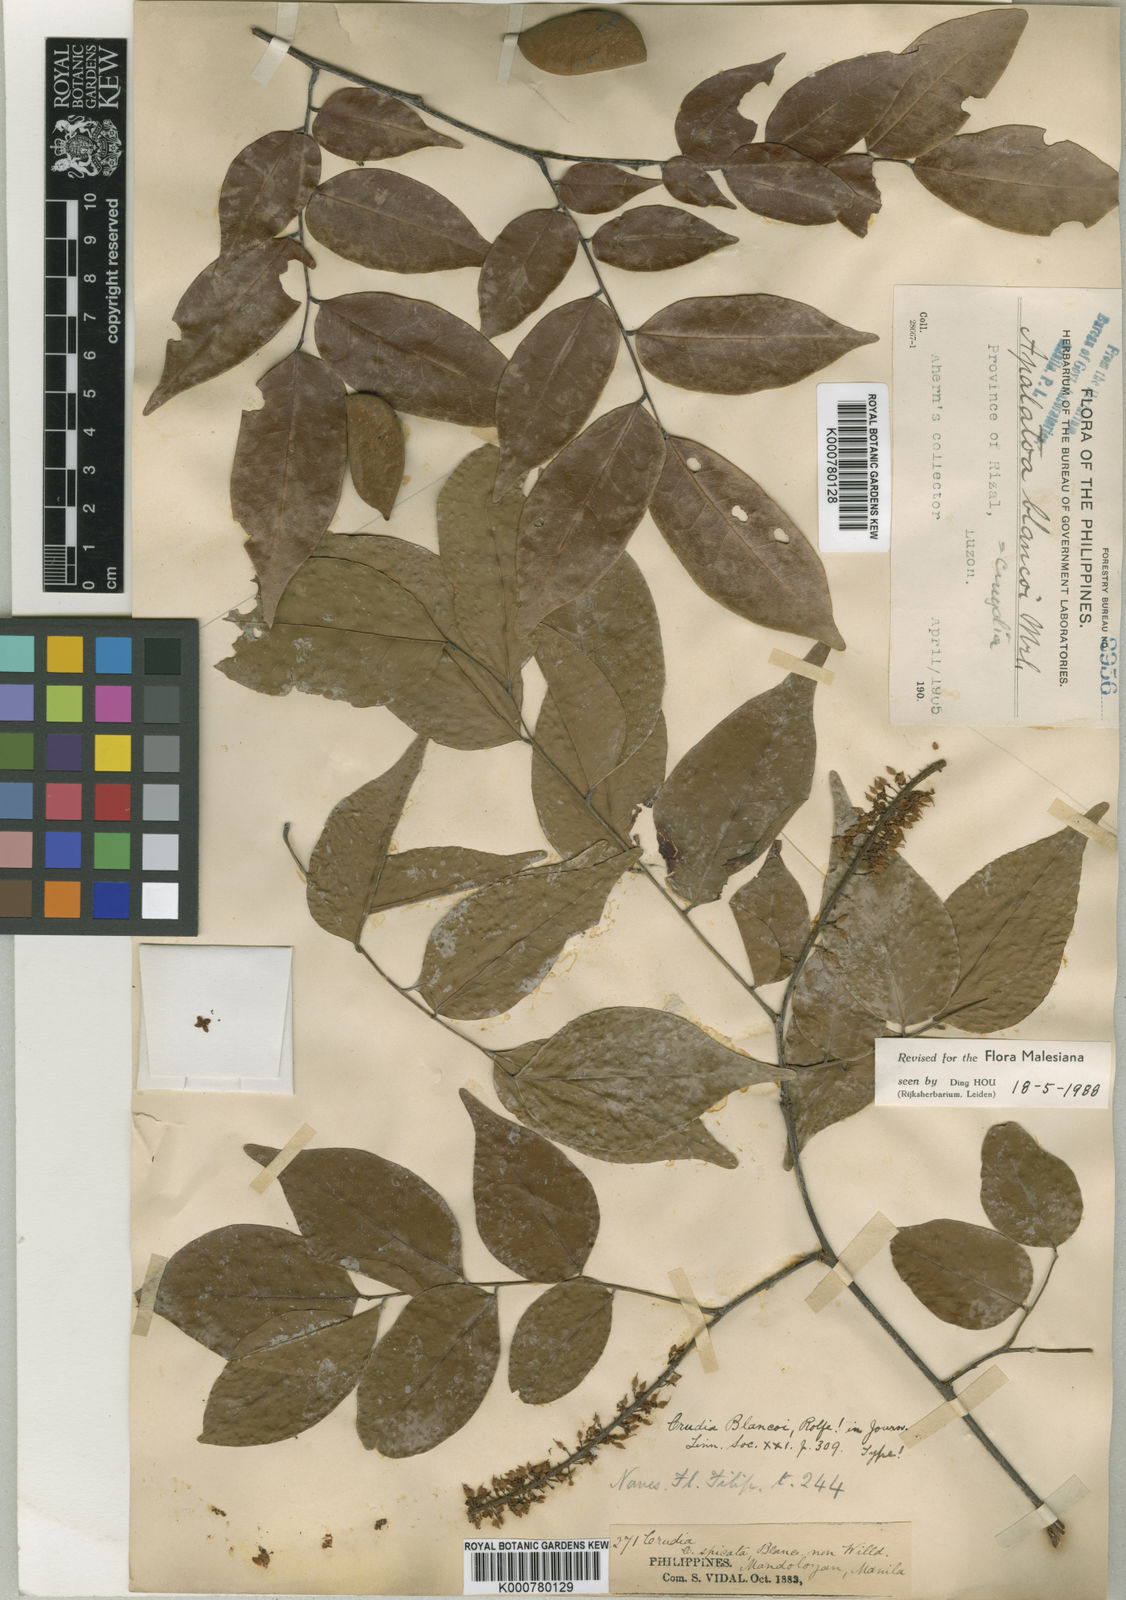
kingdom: Plantae
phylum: Tracheophyta
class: Magnoliopsida
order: Fabales
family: Fabaceae
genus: Crudia
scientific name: Crudia blancoi
